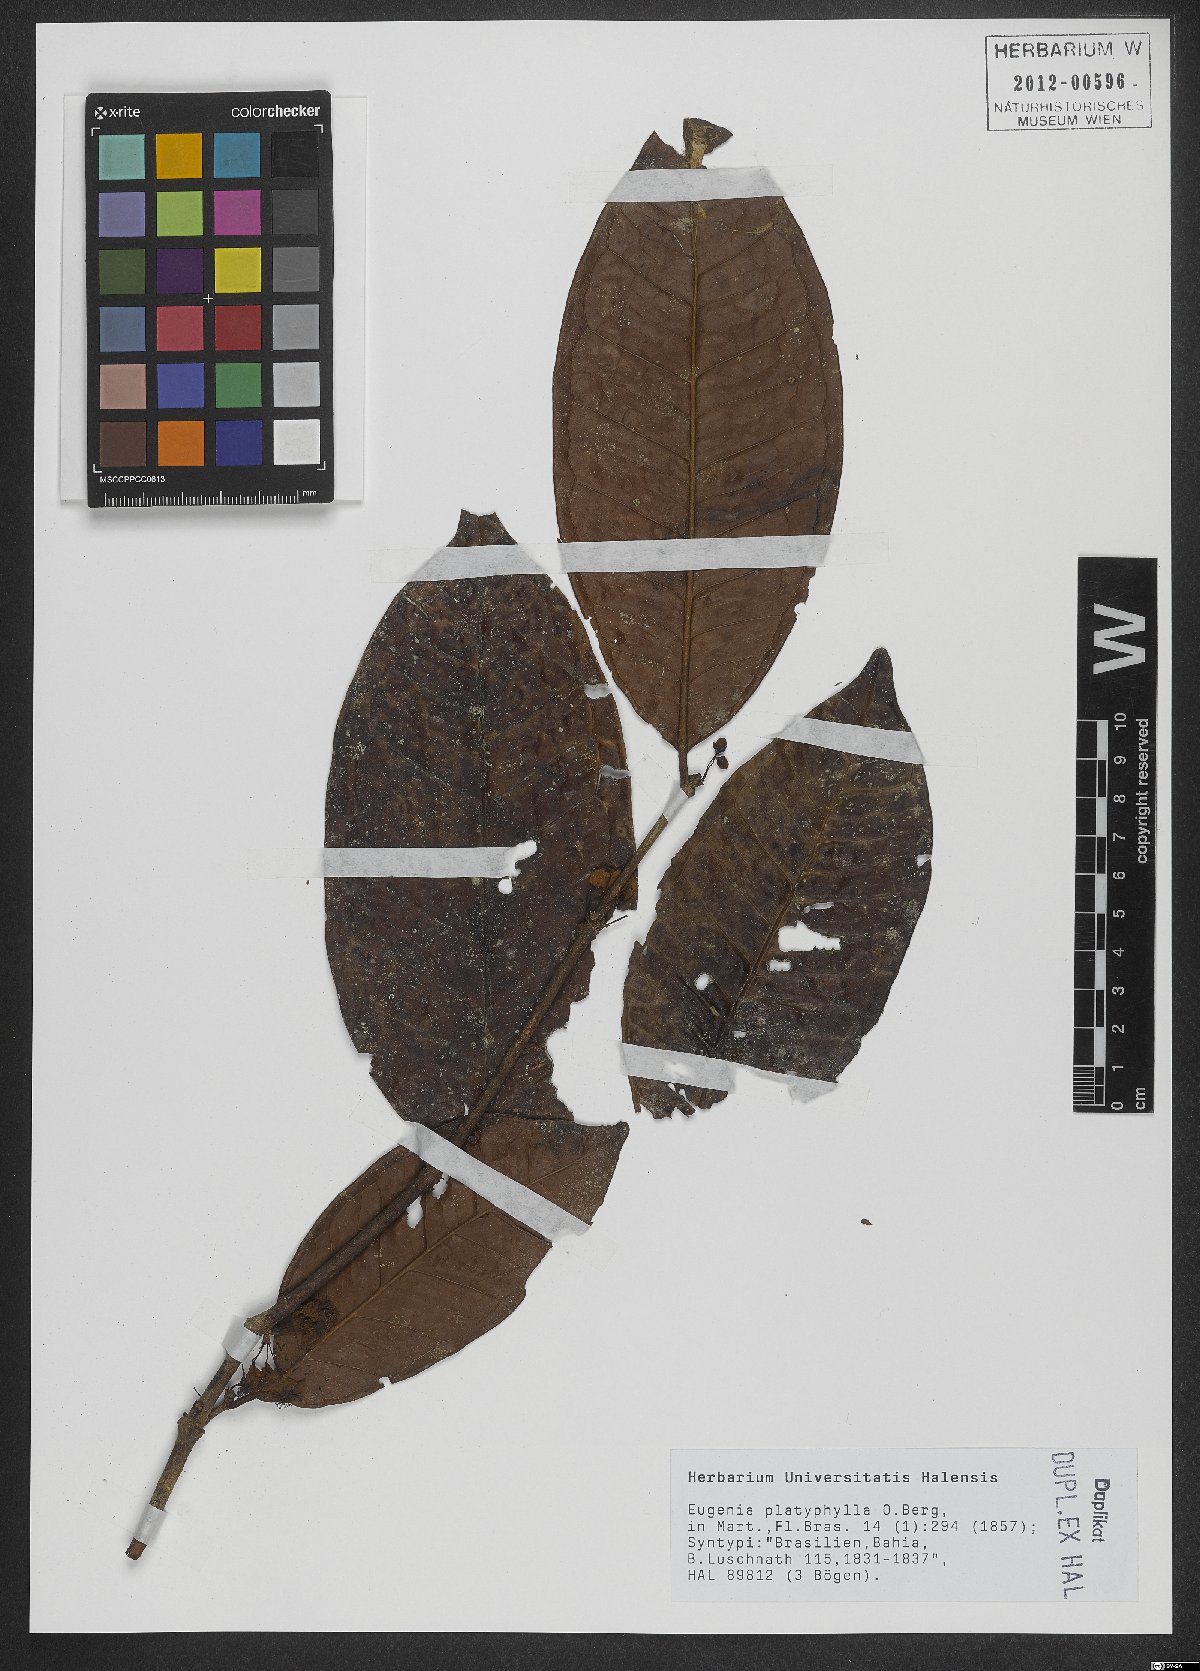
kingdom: Plantae
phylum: Tracheophyta
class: Magnoliopsida
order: Myrtales
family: Myrtaceae
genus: Eugenia
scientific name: Eugenia platyphylla
